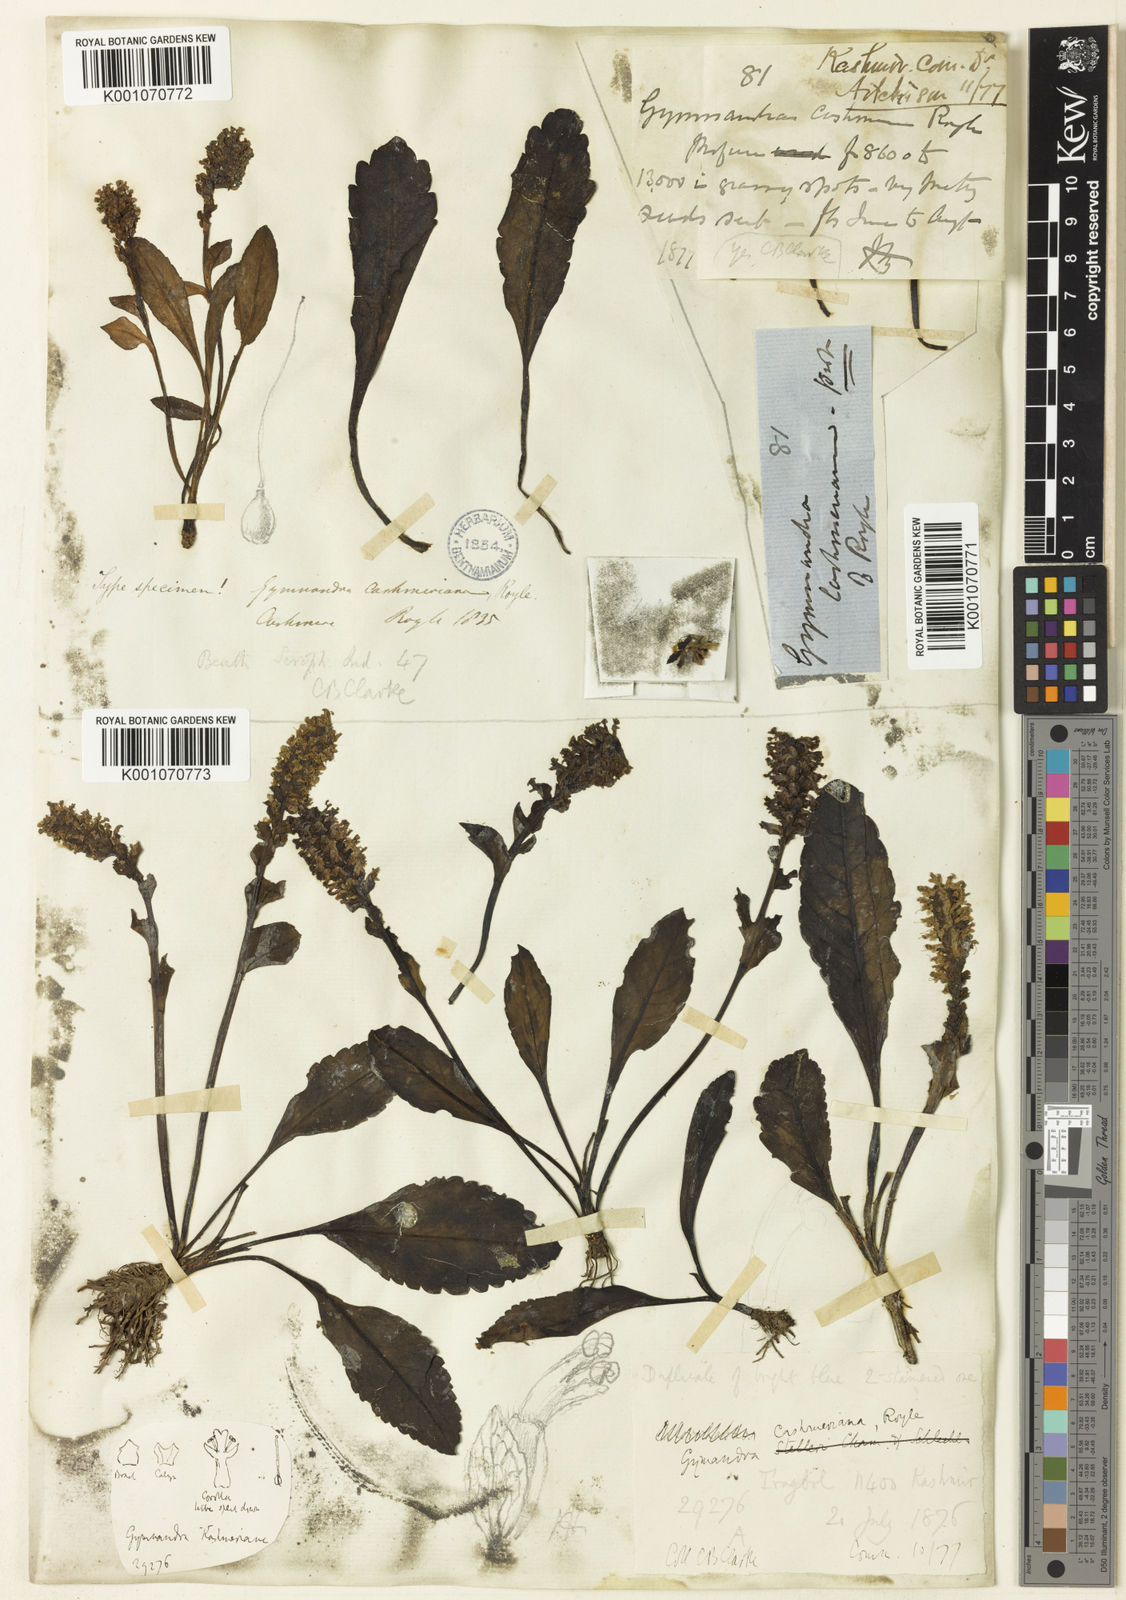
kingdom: Plantae
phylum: Tracheophyta
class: Magnoliopsida
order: Lamiales
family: Plantaginaceae
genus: Lagotis
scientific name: Lagotis cashmeriana
